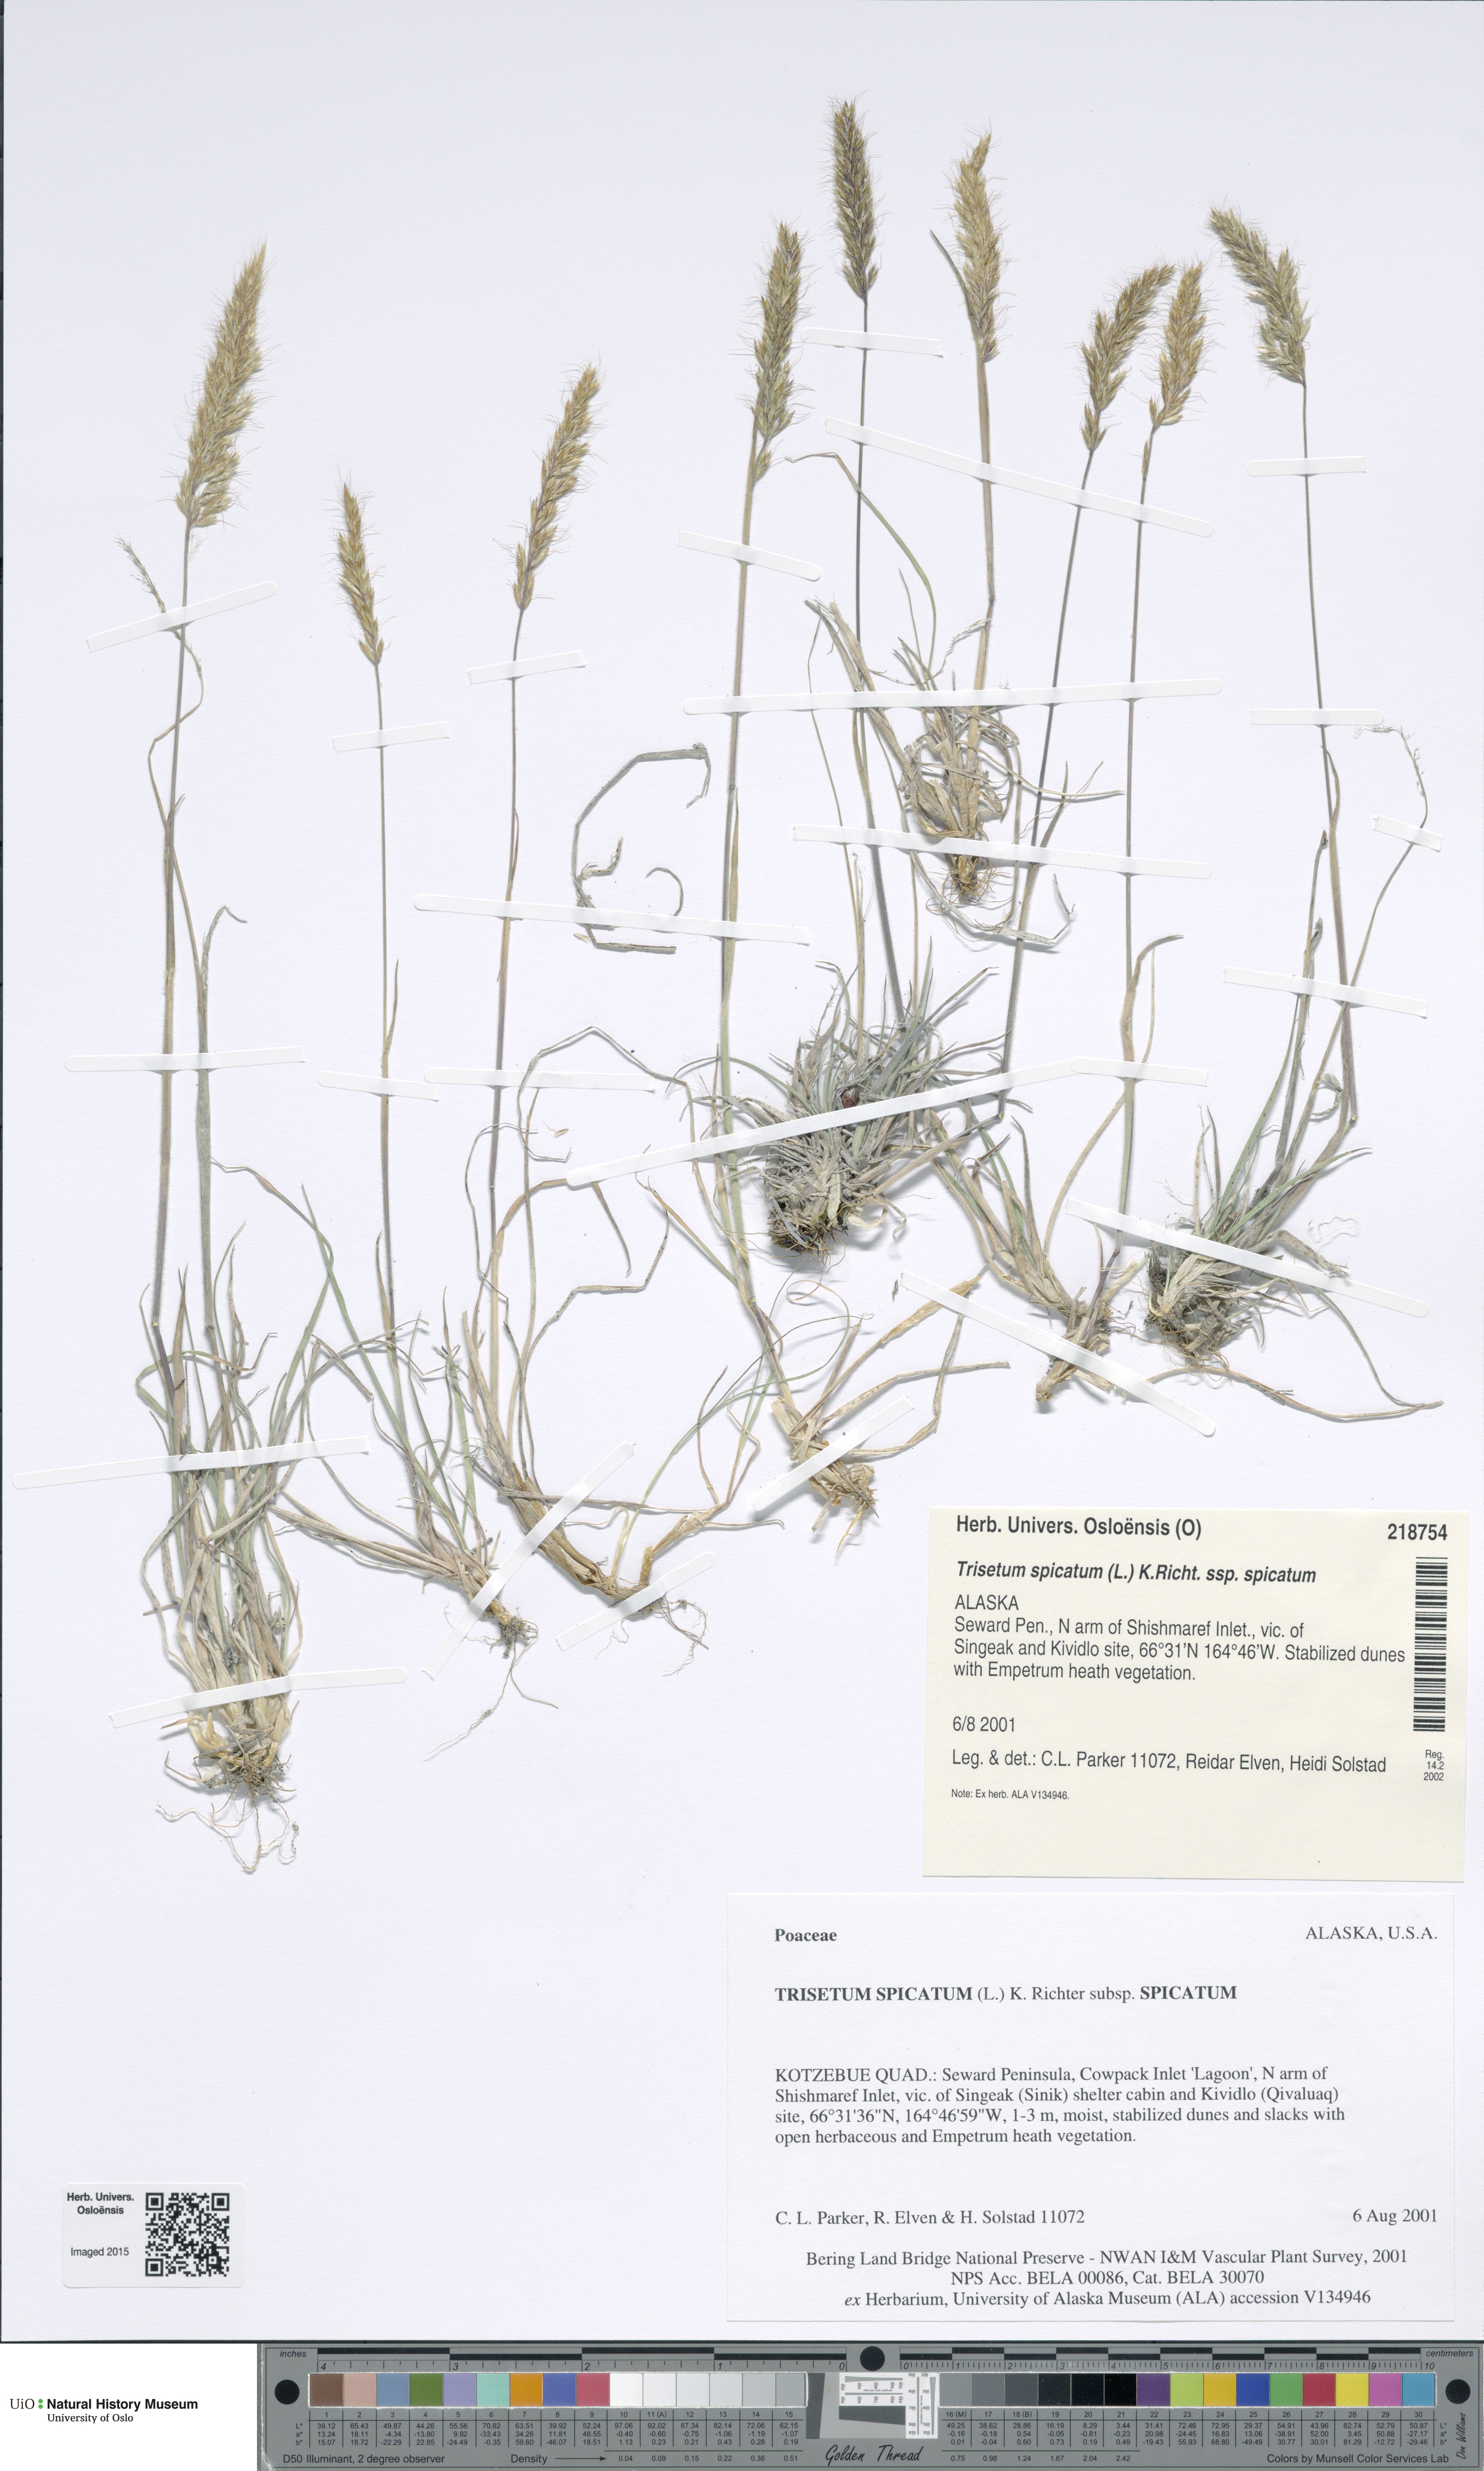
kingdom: Plantae
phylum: Tracheophyta
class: Liliopsida
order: Poales
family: Poaceae
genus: Koeleria
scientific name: Koeleria spicata
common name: Mountain trisetum
